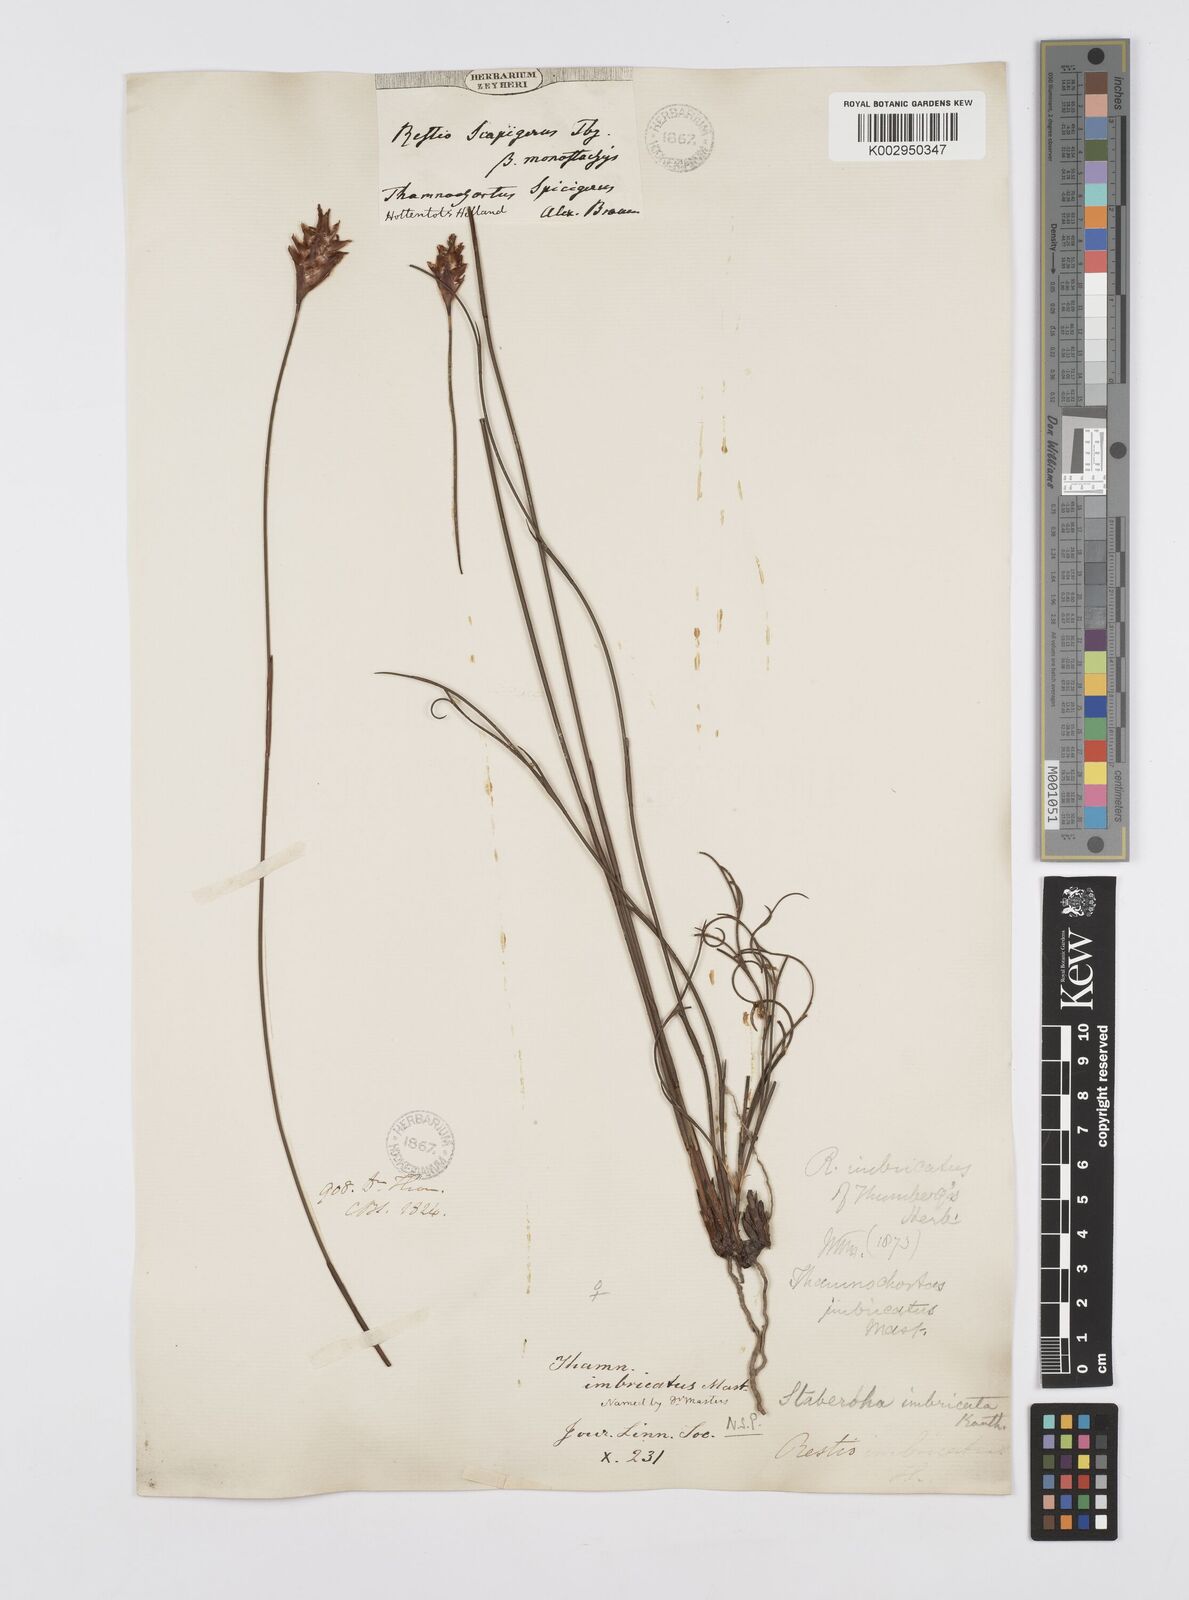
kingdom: Plantae
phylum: Tracheophyta
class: Liliopsida
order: Poales
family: Restionaceae
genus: Staberoha
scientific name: Staberoha distachyos
